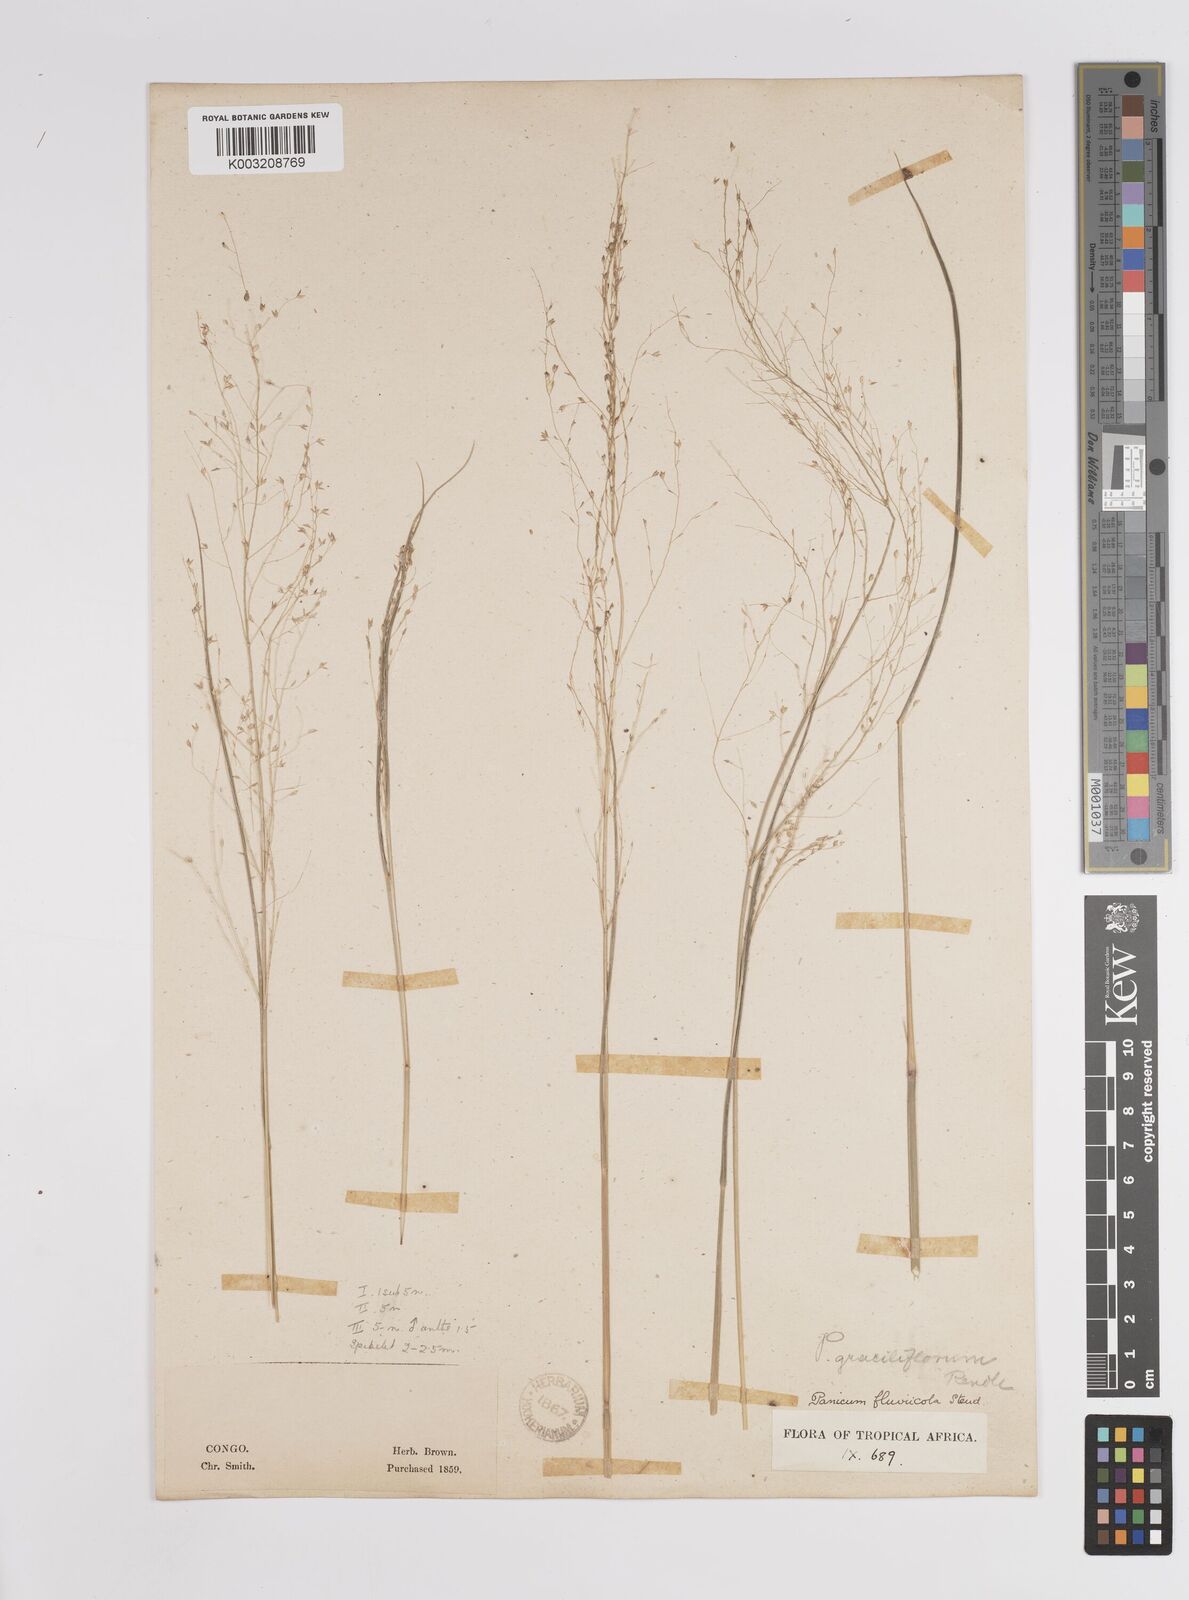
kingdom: Plantae
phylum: Tracheophyta
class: Liliopsida
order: Poales
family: Poaceae
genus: Panicum
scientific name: Panicum fluviicola
